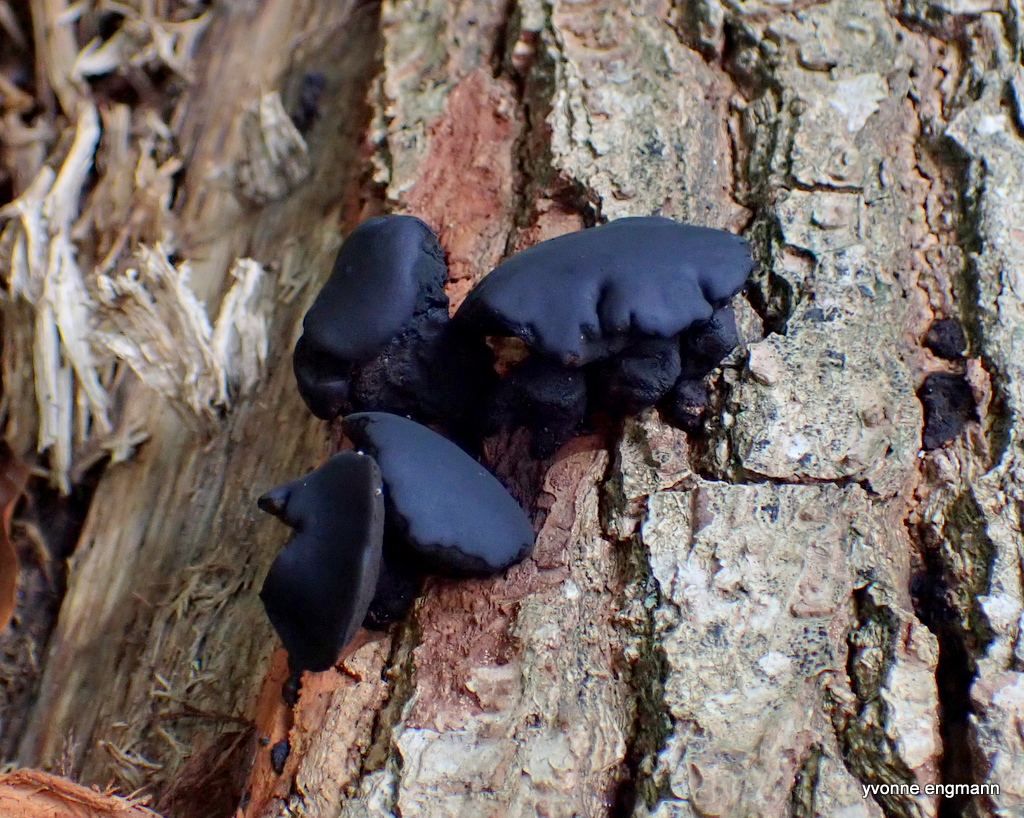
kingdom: Fungi
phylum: Ascomycota
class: Leotiomycetes
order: Phacidiales
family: Phacidiaceae
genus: Bulgaria
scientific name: Bulgaria inquinans
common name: afsmittende topsvamp
